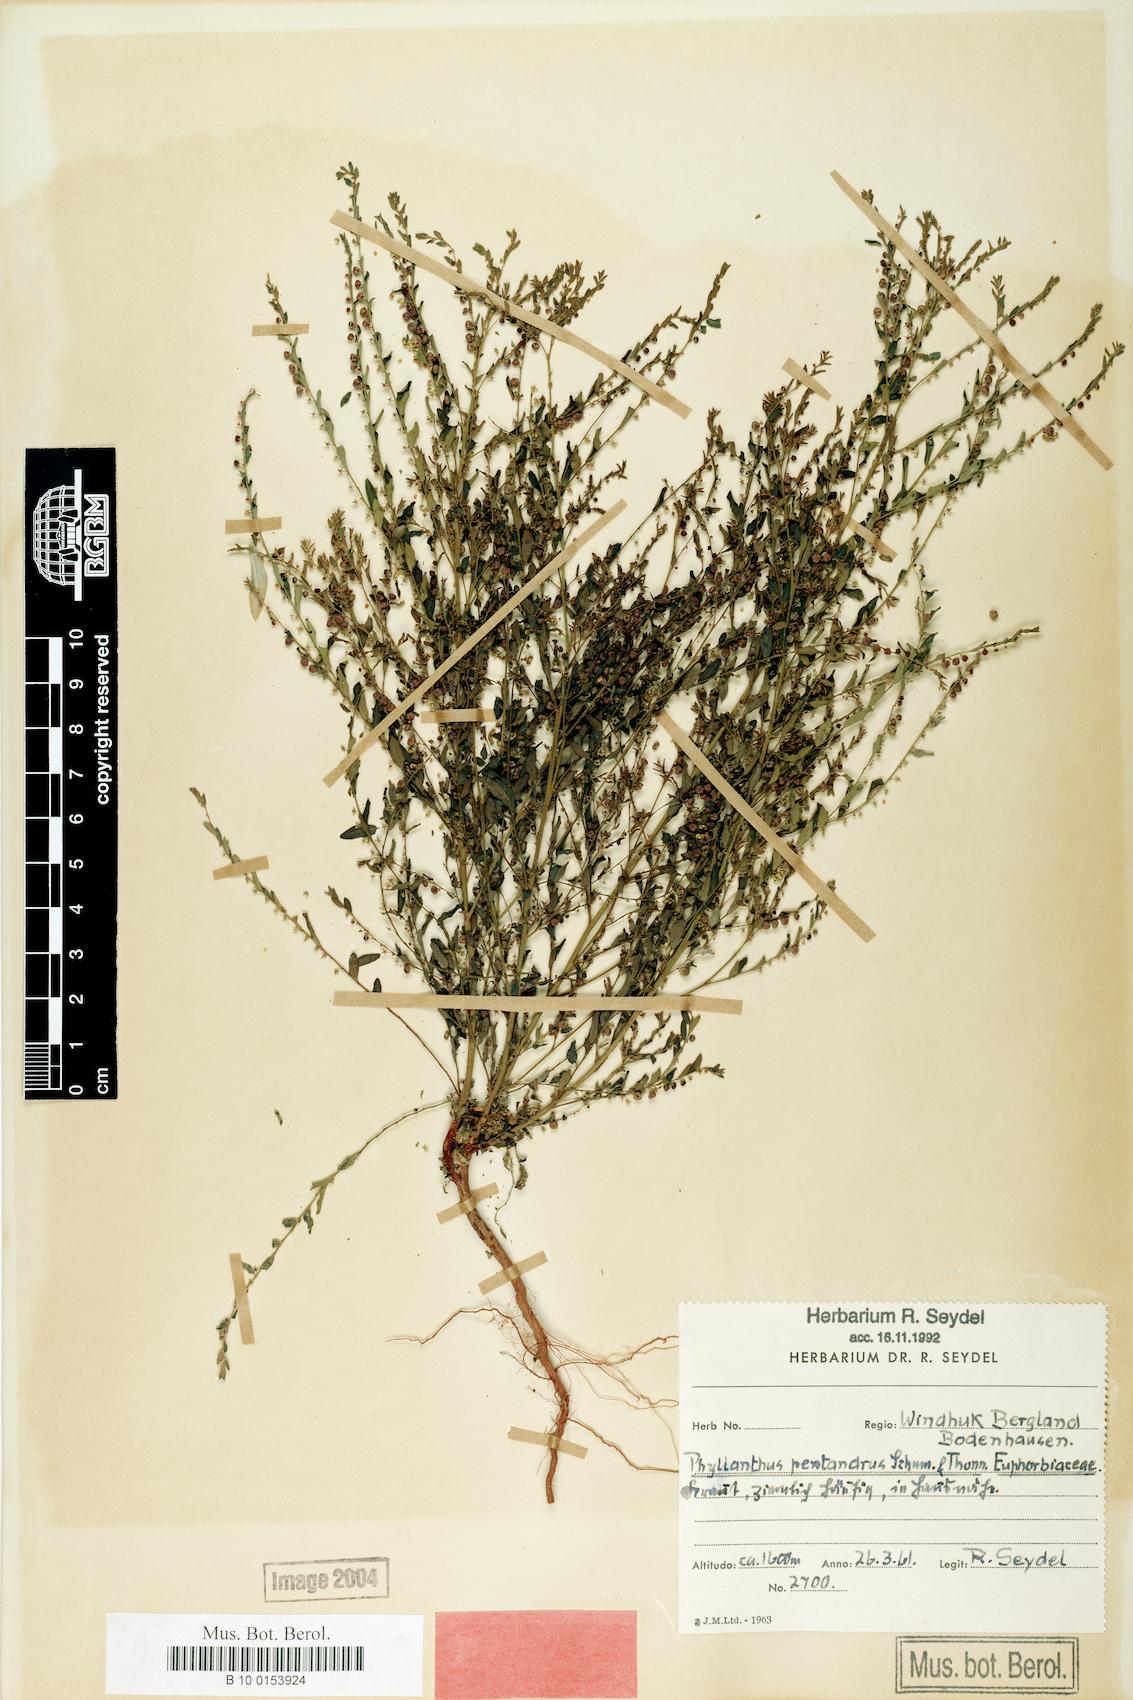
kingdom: Plantae
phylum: Tracheophyta
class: Magnoliopsida
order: Malpighiales
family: Phyllanthaceae
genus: Phyllanthus
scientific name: Phyllanthus parvulus
